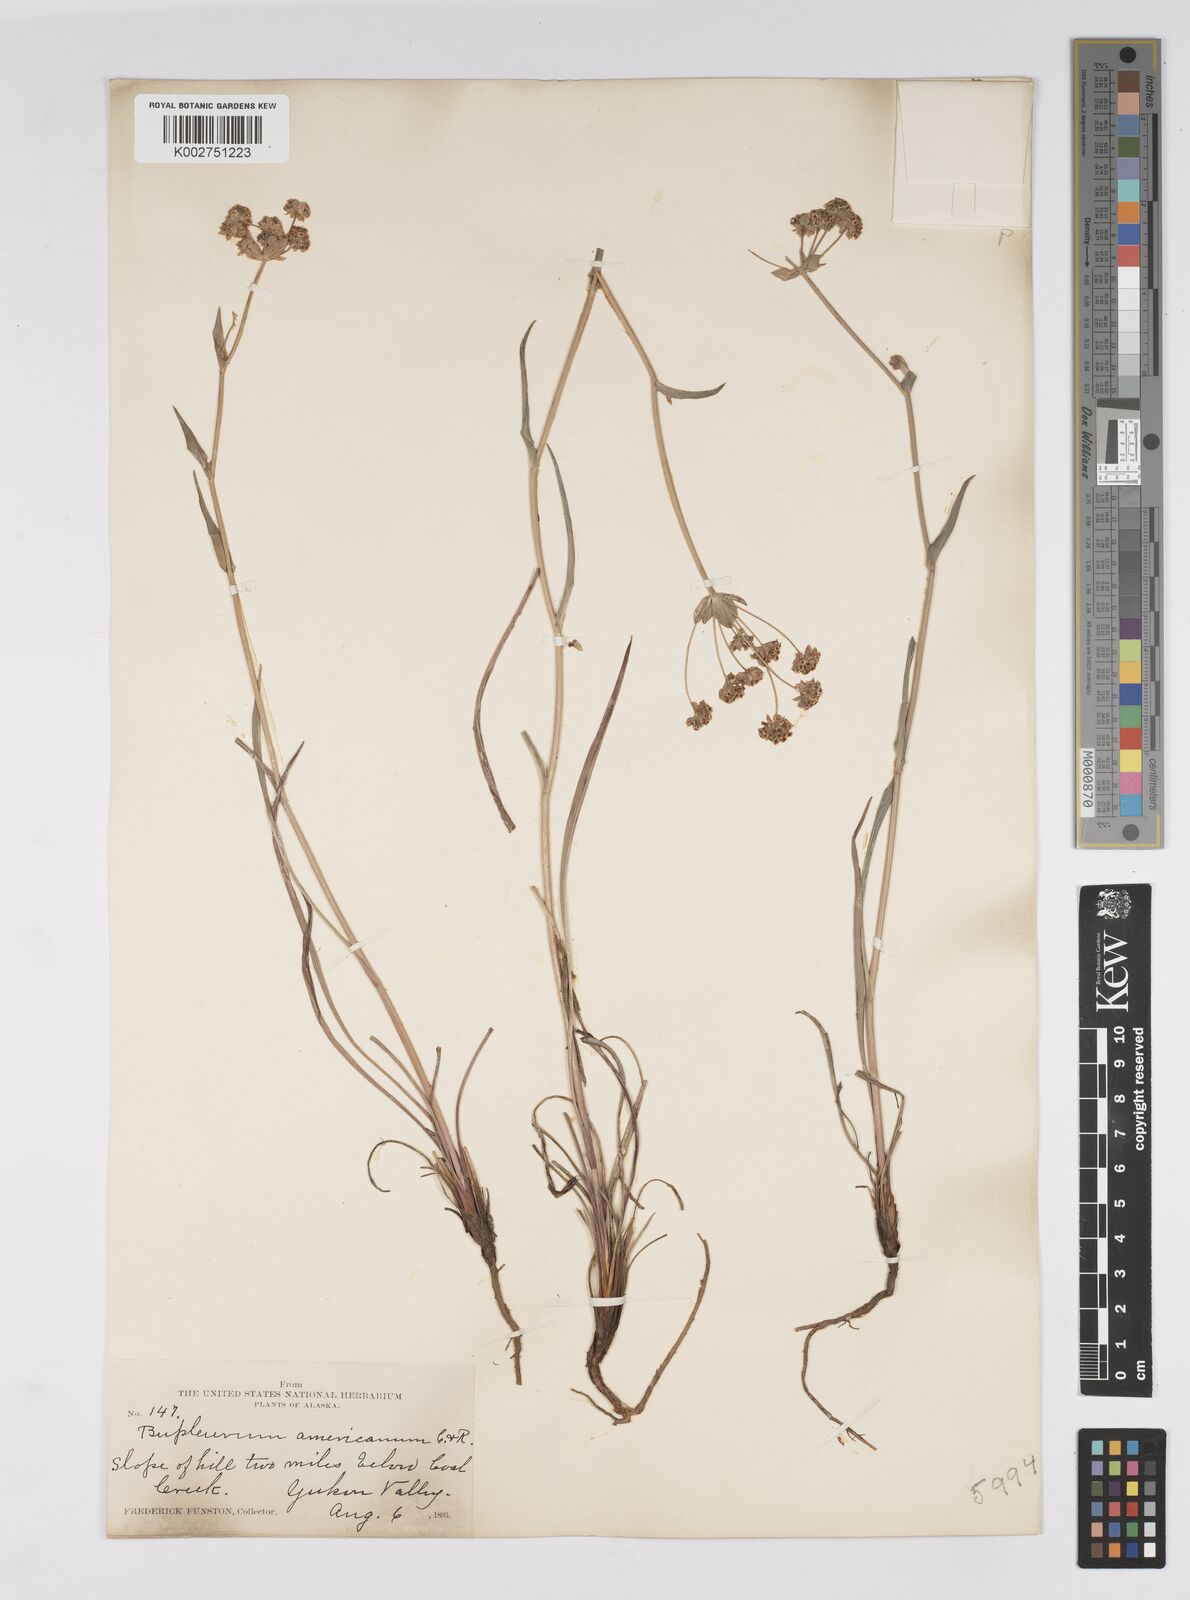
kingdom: Plantae
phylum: Tracheophyta
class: Magnoliopsida
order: Apiales
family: Apiaceae
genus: Bupleurum
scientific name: Bupleurum americanum
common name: American thoroughwax
